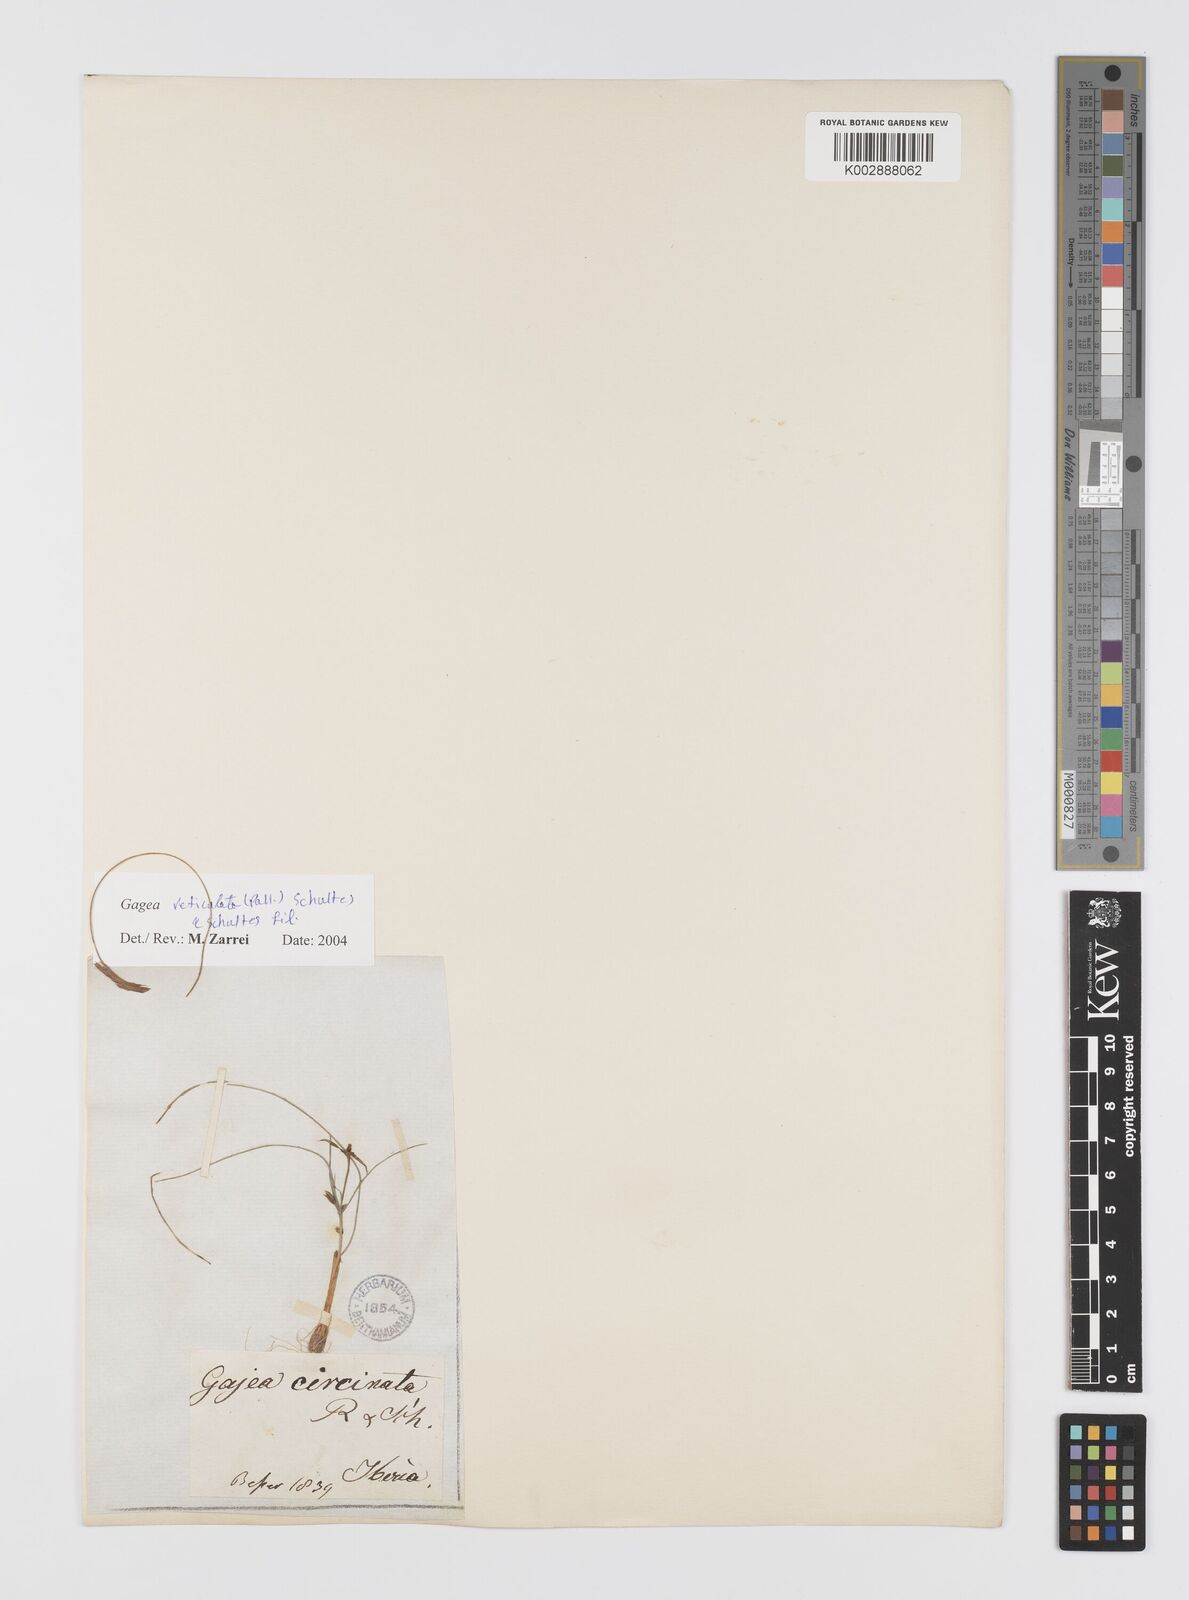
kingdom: Plantae
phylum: Tracheophyta
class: Liliopsida
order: Liliales
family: Liliaceae
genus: Gagea
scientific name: Gagea reticulata
